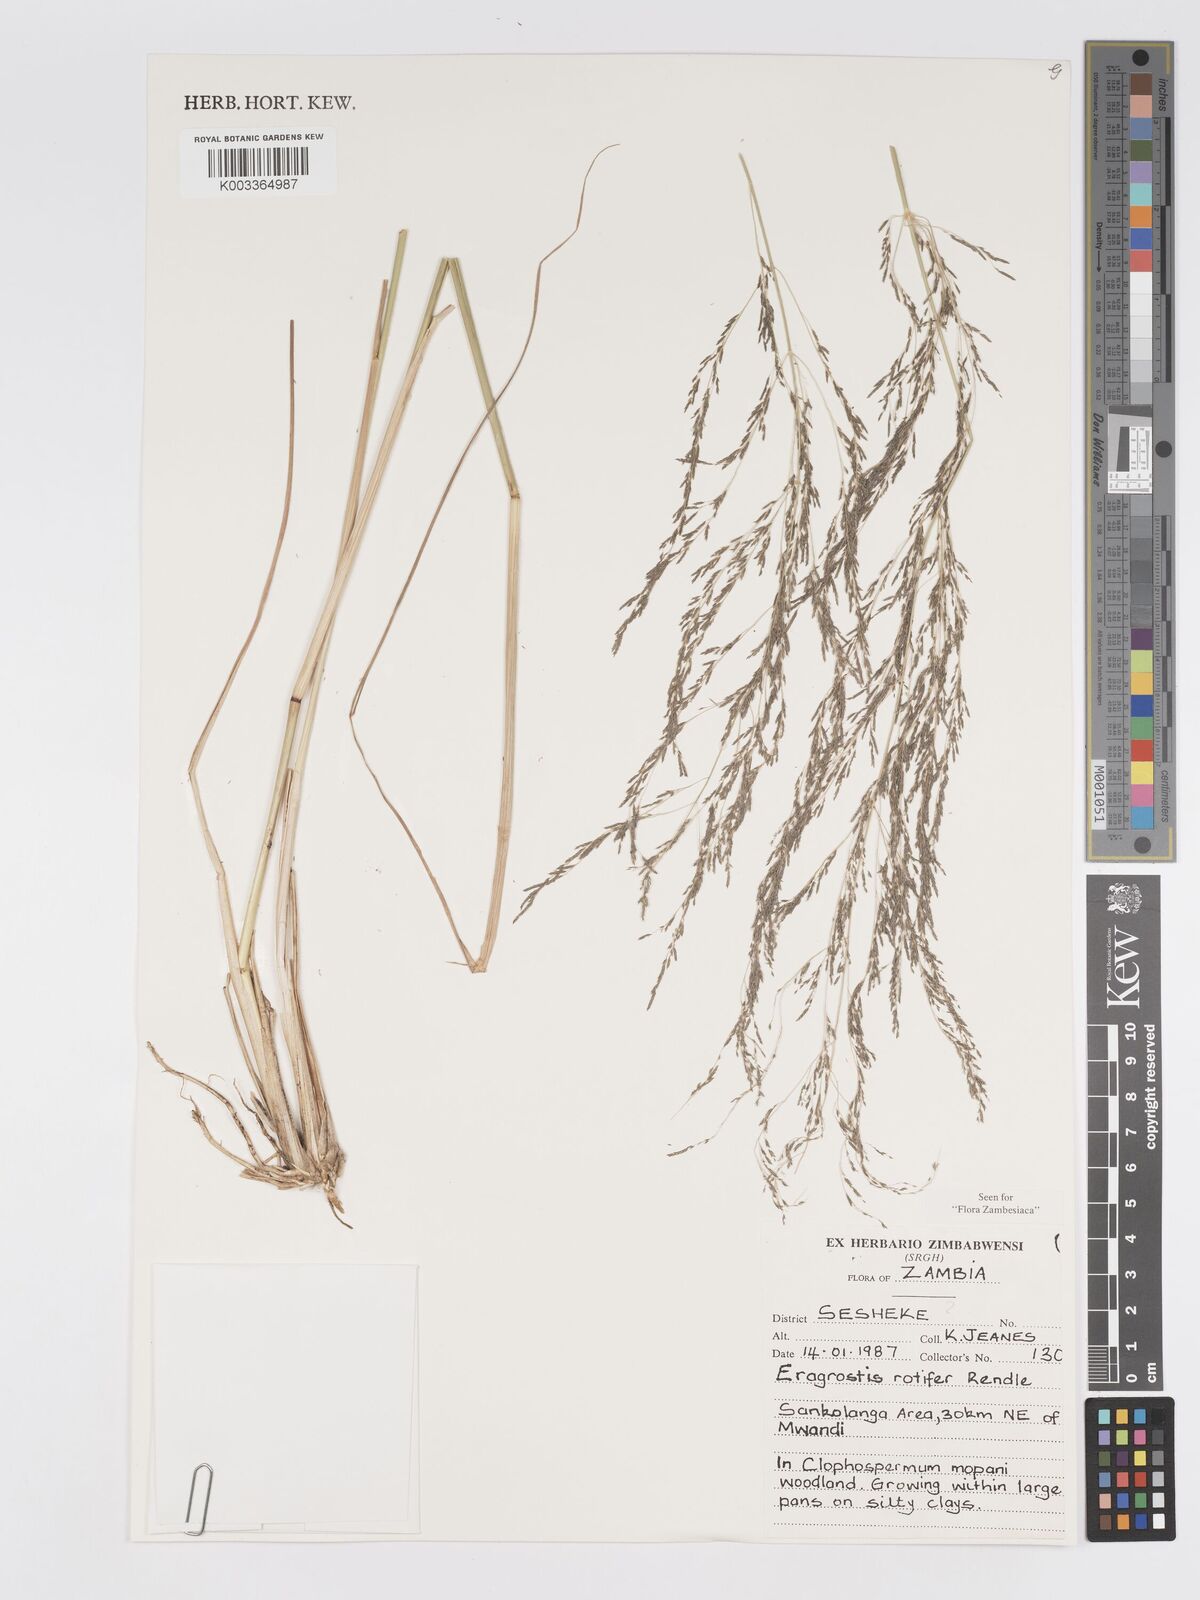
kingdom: Plantae
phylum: Tracheophyta
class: Liliopsida
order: Poales
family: Poaceae
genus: Eragrostis
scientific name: Eragrostis rotifer
